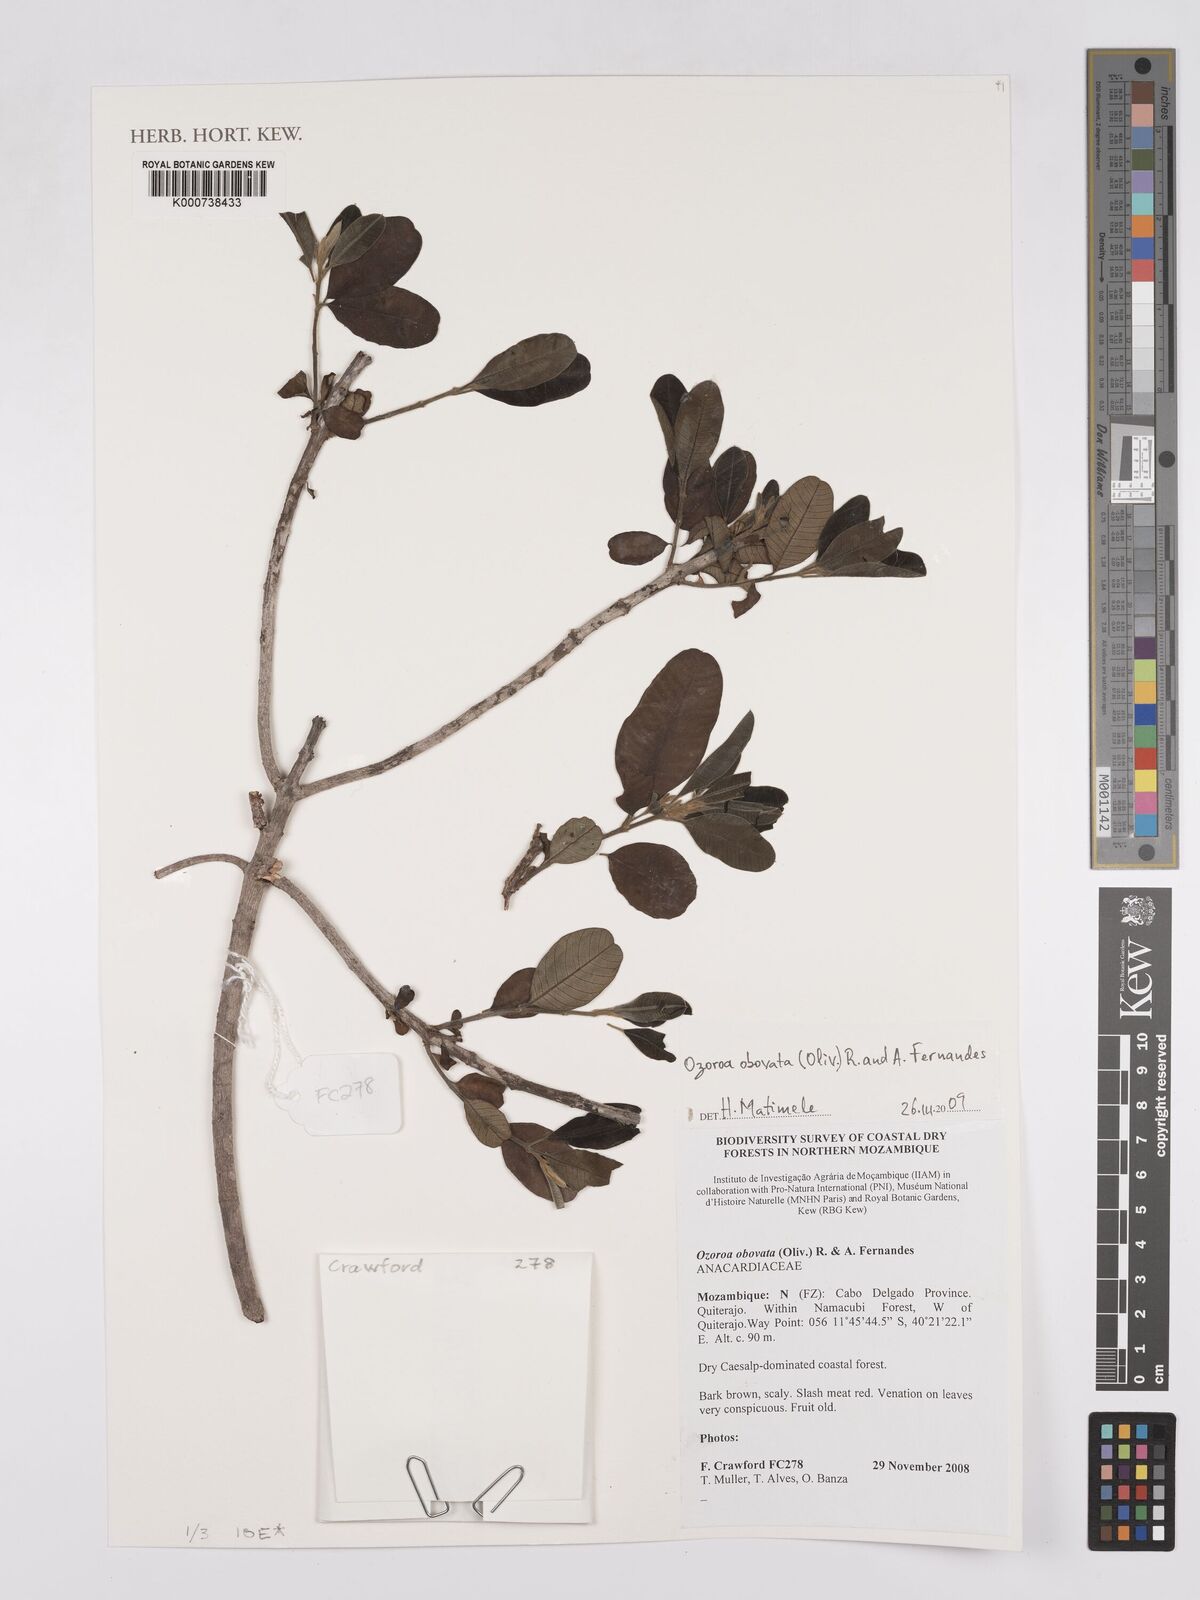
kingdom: Plantae
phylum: Tracheophyta
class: Magnoliopsida
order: Sapindales
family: Anacardiaceae
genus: Ozoroa
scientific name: Ozoroa obovata
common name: Broad-leaved resin tree
